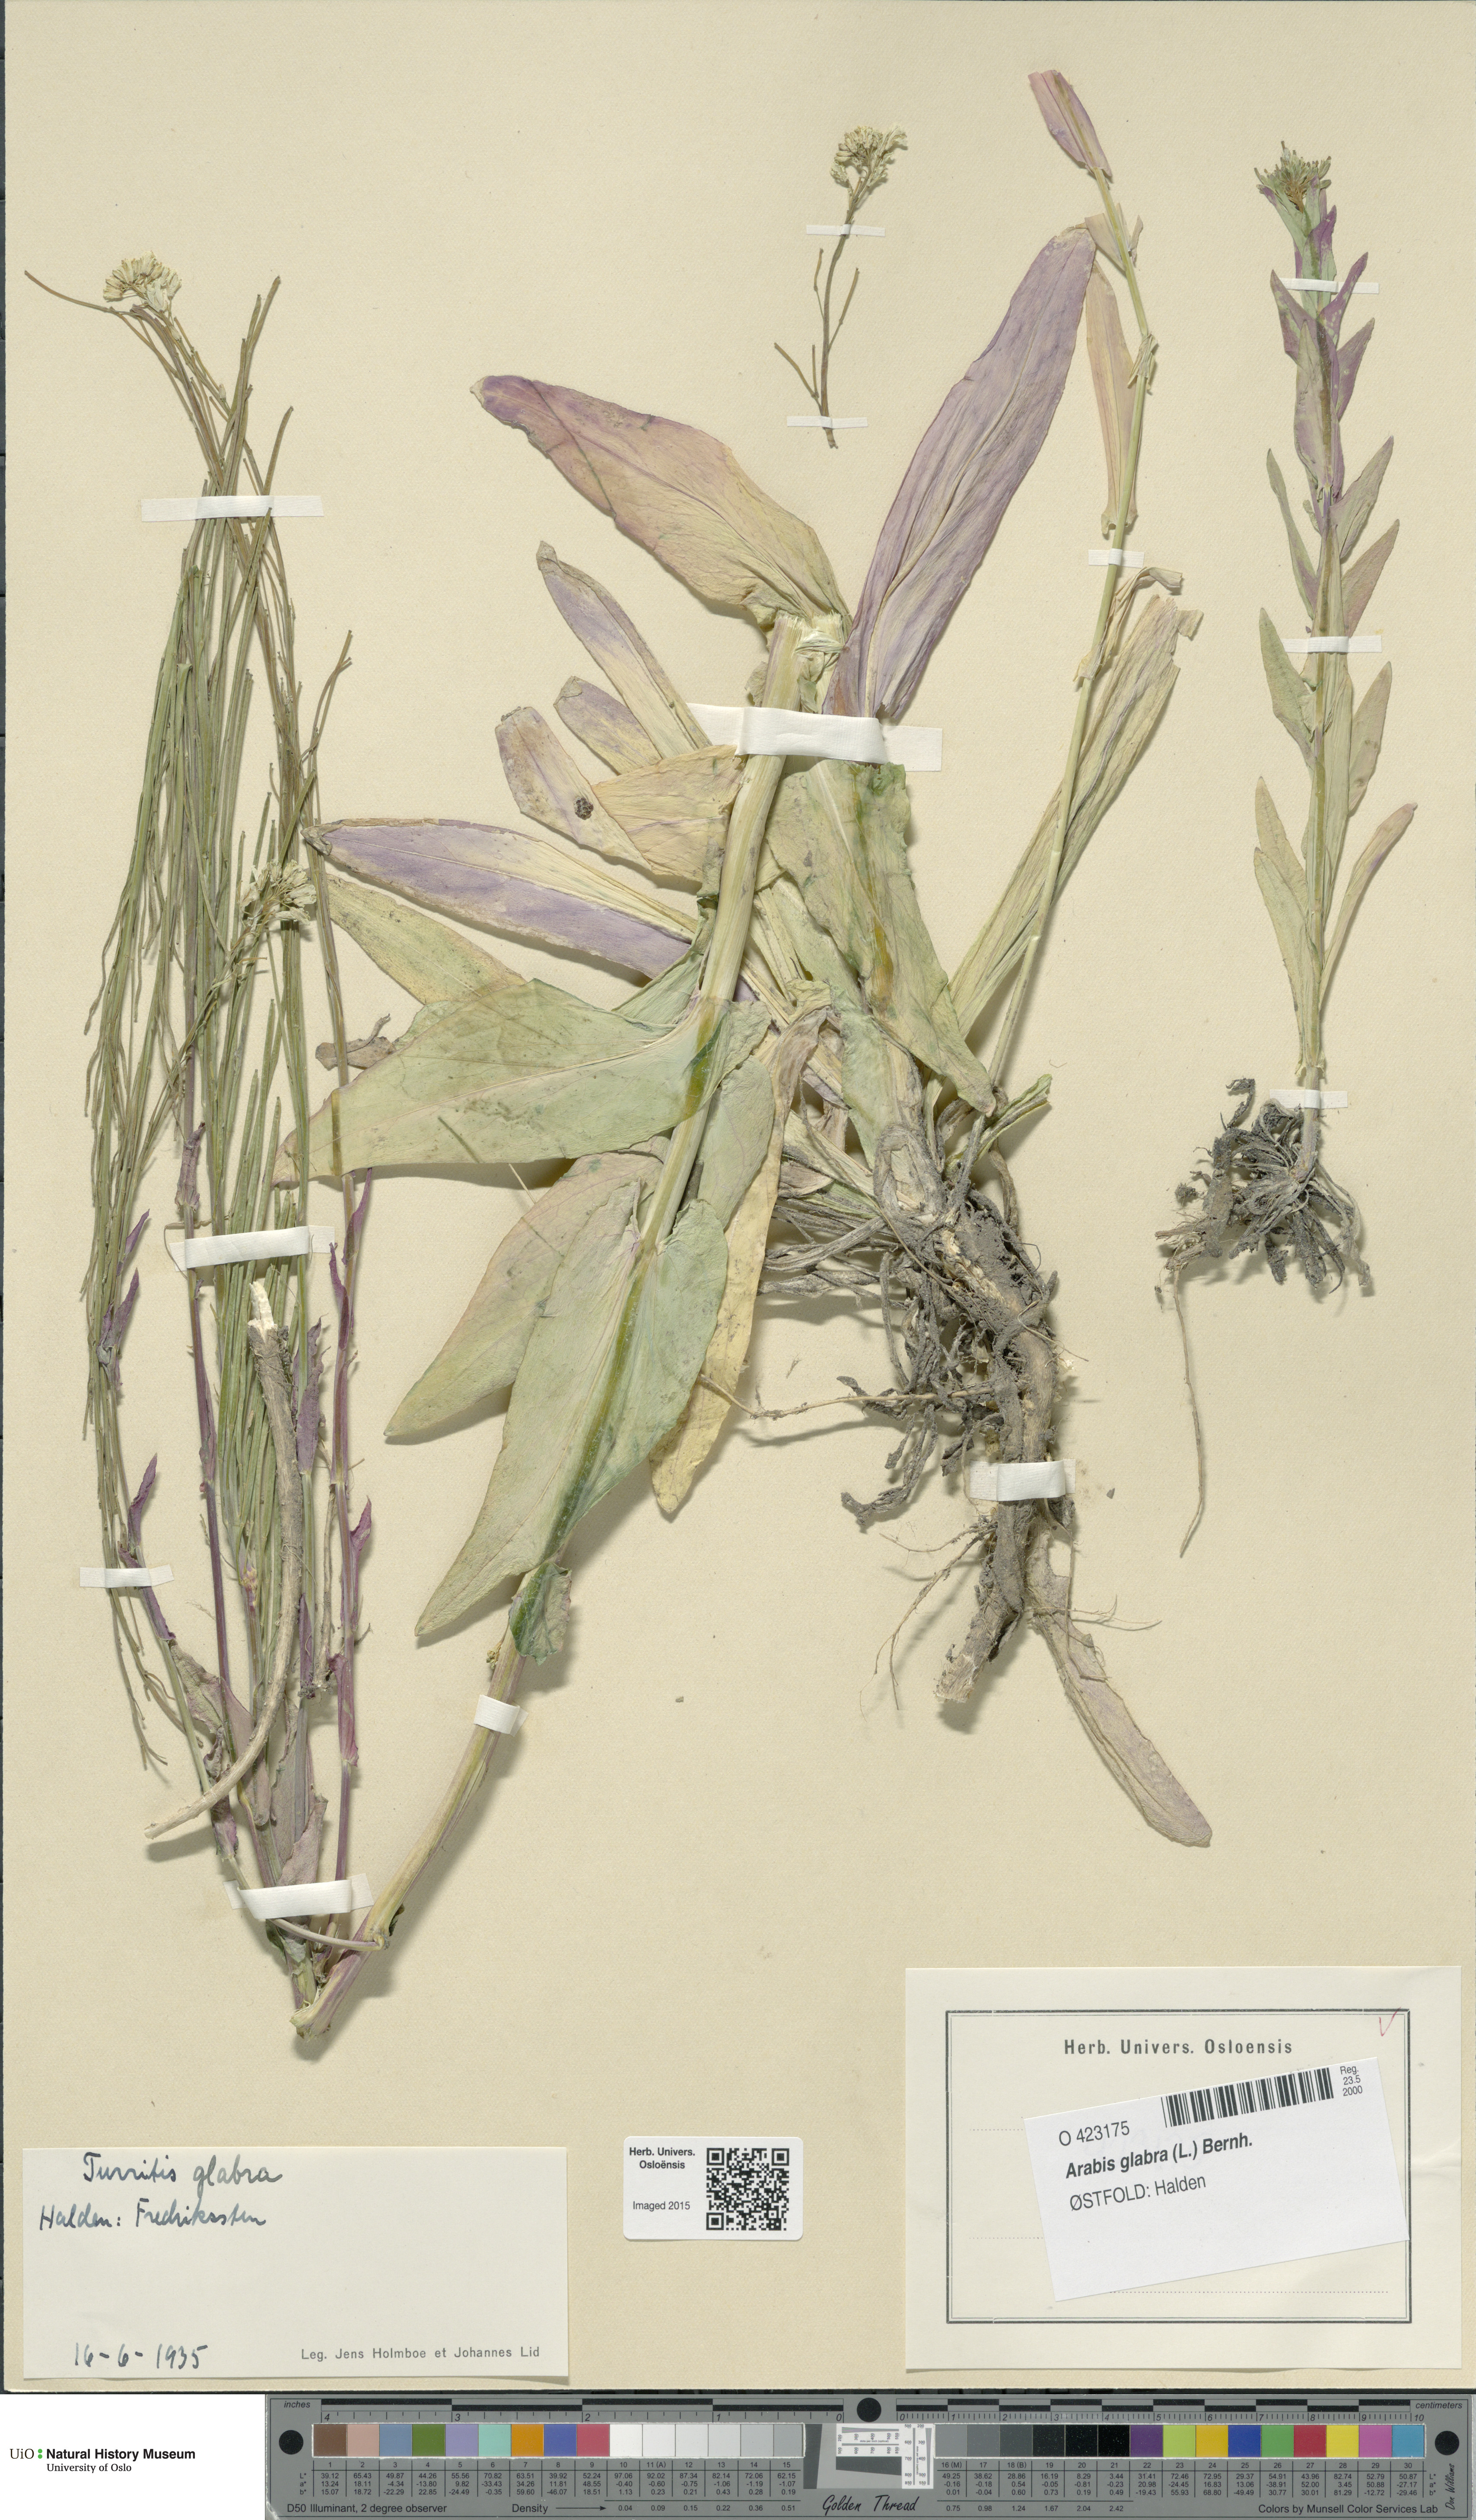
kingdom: Plantae
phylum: Tracheophyta
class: Magnoliopsida
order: Brassicales
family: Brassicaceae
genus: Turritis
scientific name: Turritis glabra
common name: Tower rockcress
